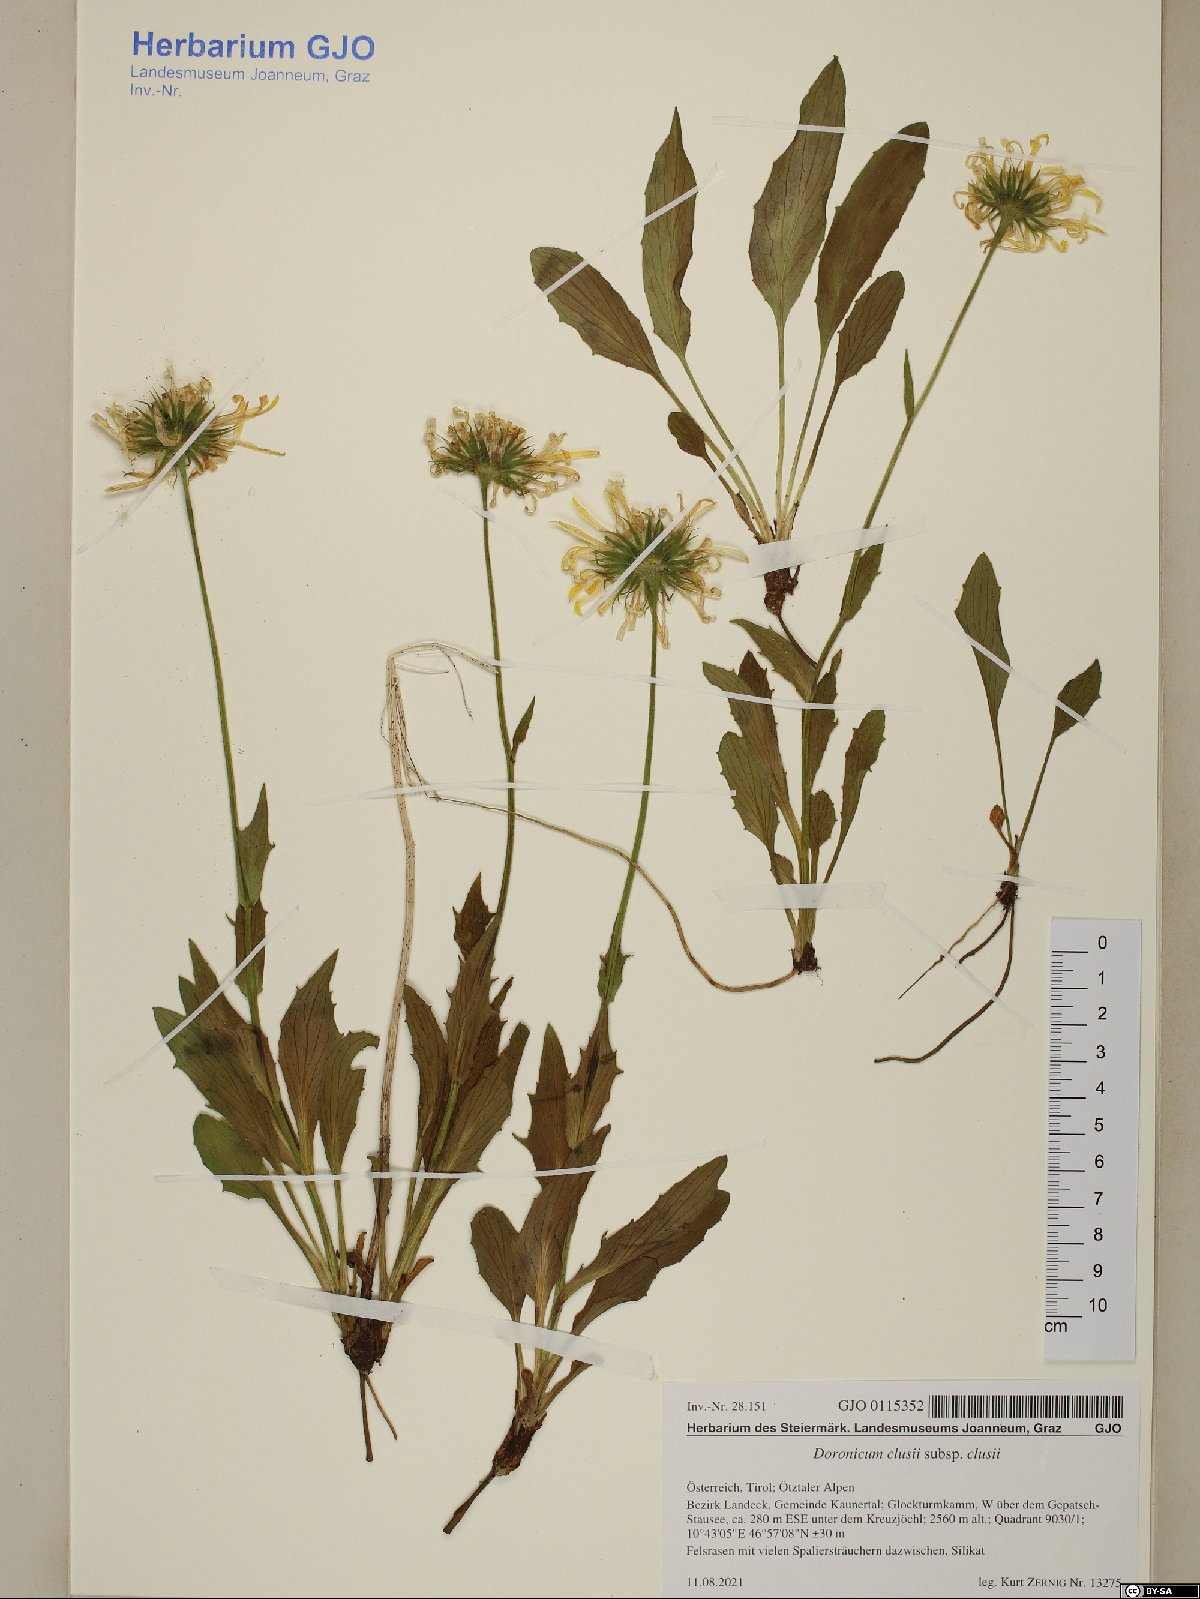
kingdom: Plantae
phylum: Tracheophyta
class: Magnoliopsida
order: Asterales
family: Asteraceae
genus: Doronicum
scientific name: Doronicum clusii
